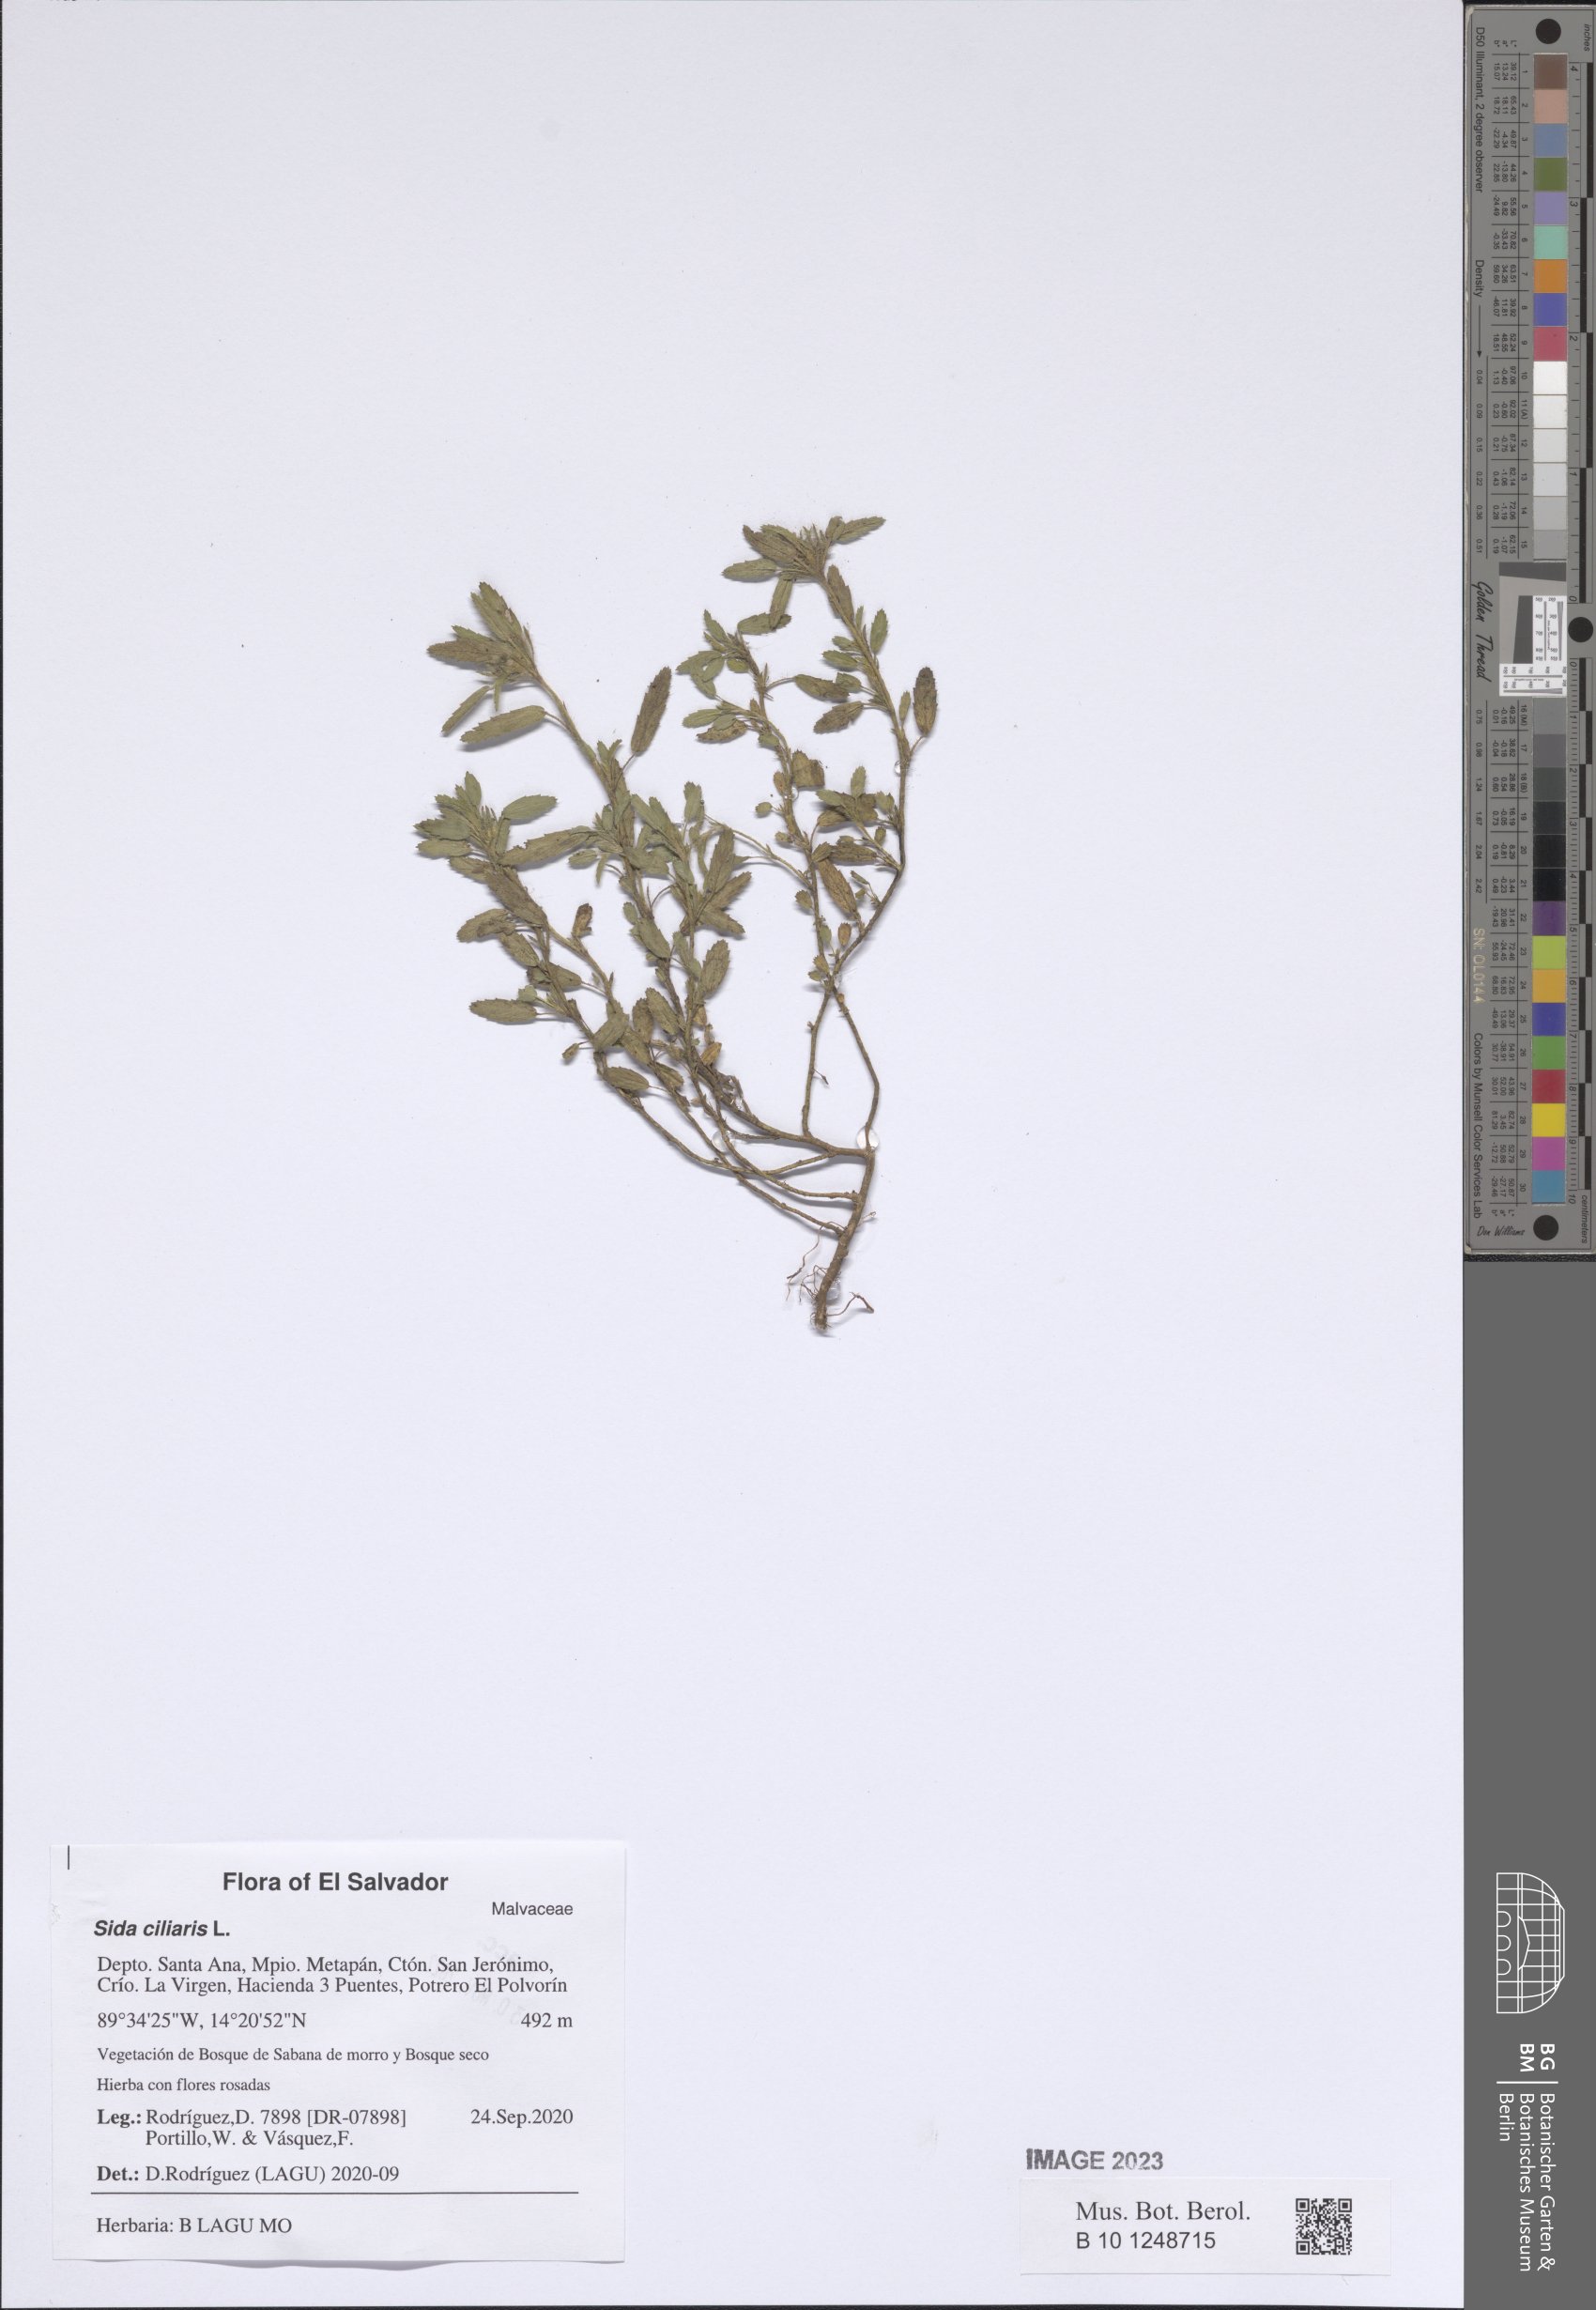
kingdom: Plantae
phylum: Tracheophyta
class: Magnoliopsida
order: Malvales
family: Malvaceae
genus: Sida
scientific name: Sida ciliaris
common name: Bracted fanpetals
